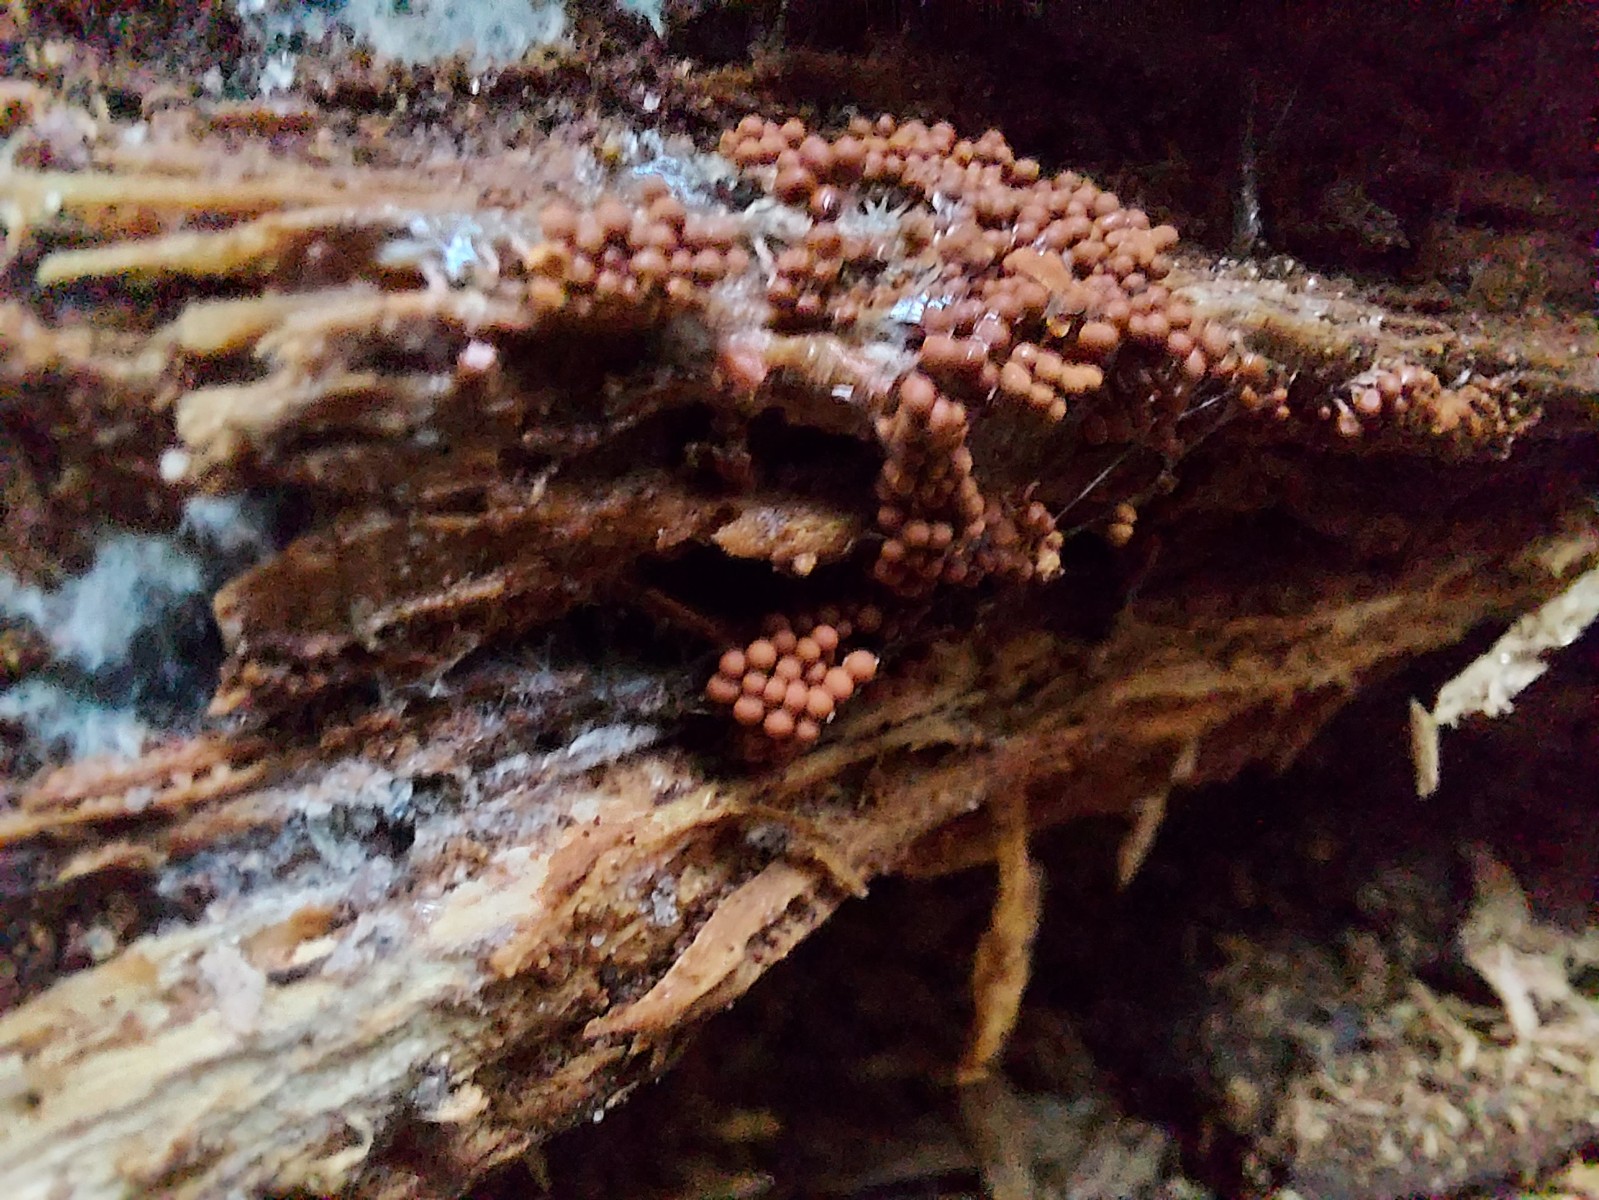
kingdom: Protozoa
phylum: Mycetozoa
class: Myxomycetes
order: Trichiales
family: Arcyriaceae
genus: Arcyria
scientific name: Arcyria ferruginea
